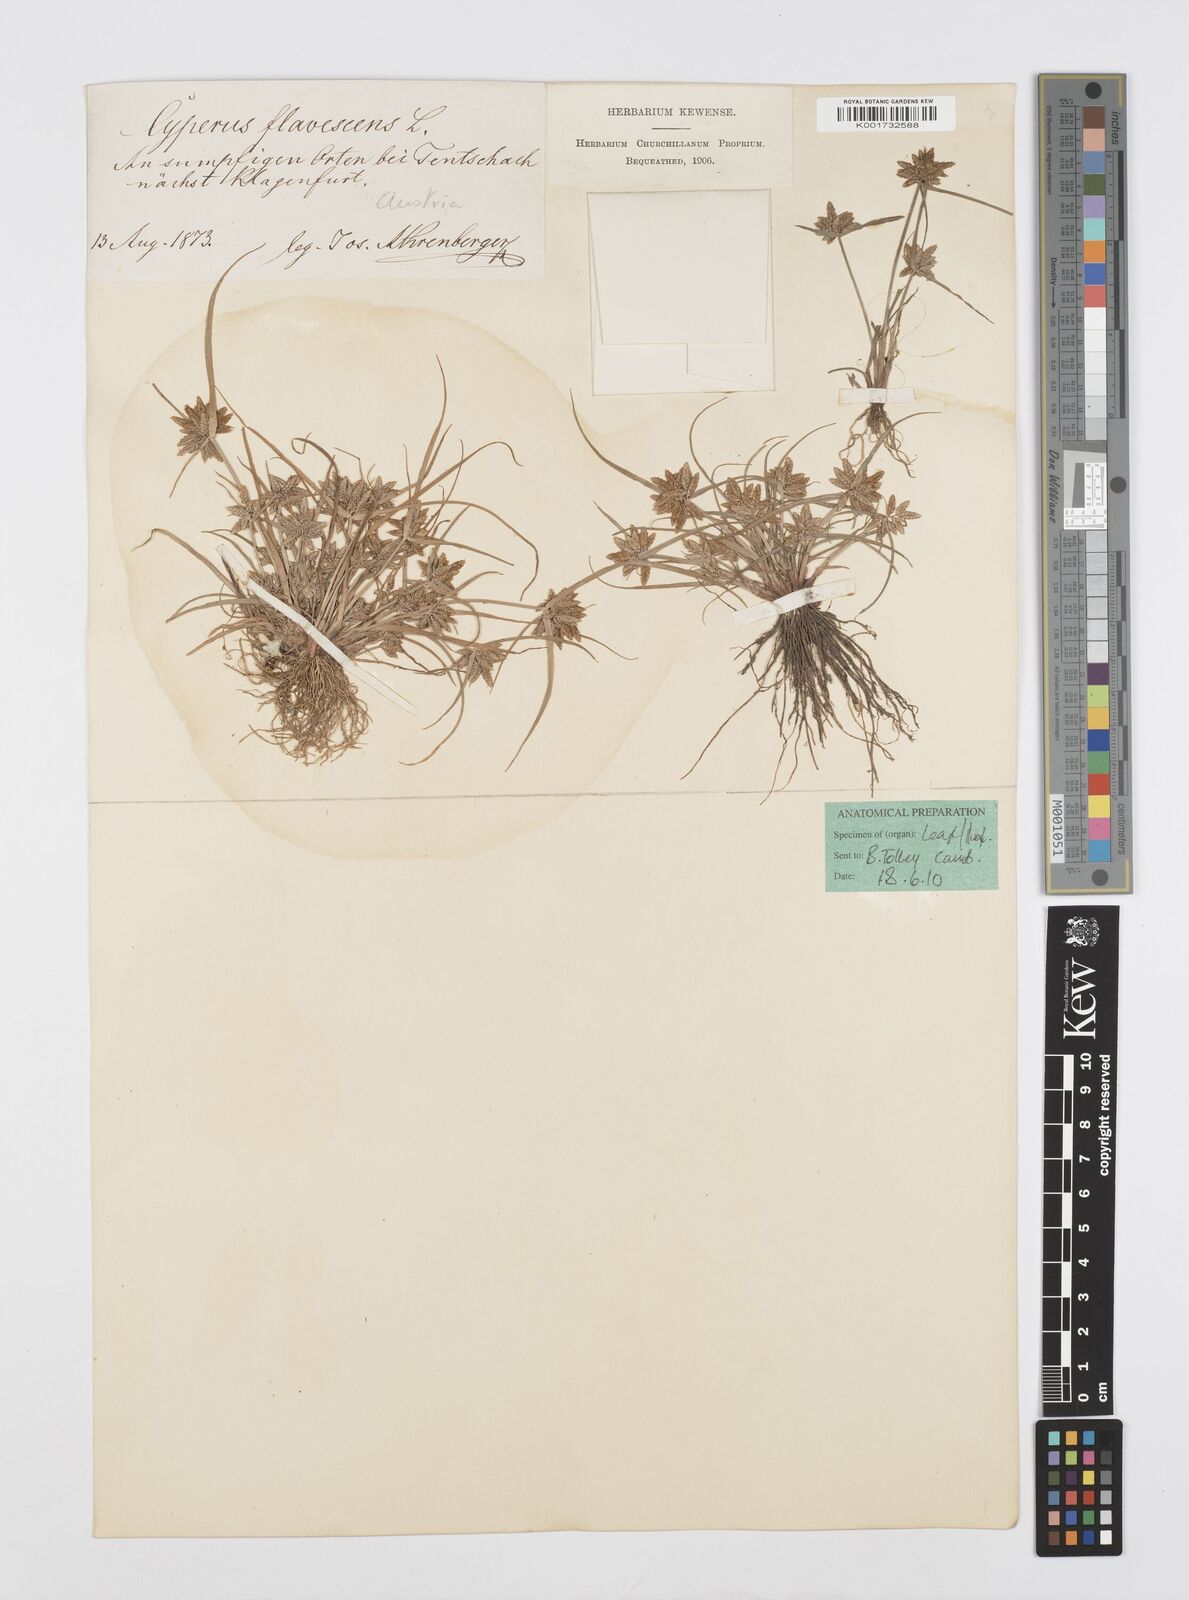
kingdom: Plantae
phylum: Tracheophyta
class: Liliopsida
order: Poales
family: Cyperaceae
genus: Cyperus
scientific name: Cyperus flavescens
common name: Yellow galingale
